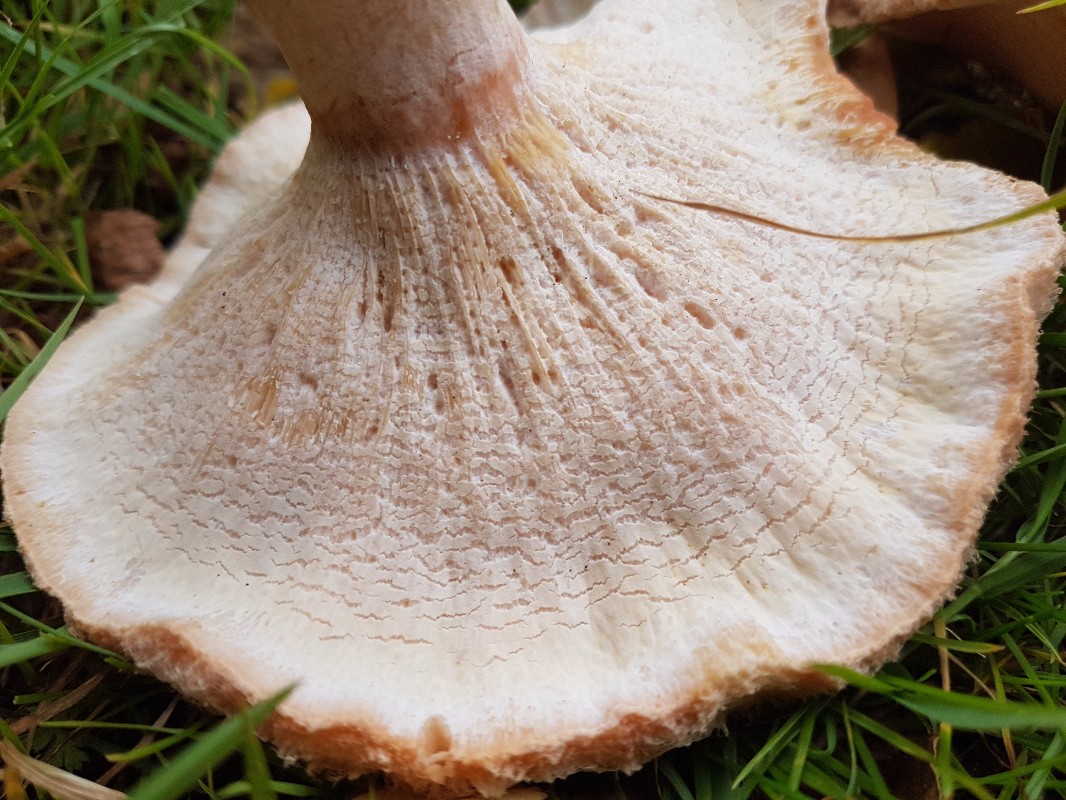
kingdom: Fungi
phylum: Ascomycota
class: Sordariomycetes
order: Hypocreales
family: Hypocreaceae
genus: Hypomyces
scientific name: Hypomyces spadiceus
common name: mælkeskæg-snylteskorpe
